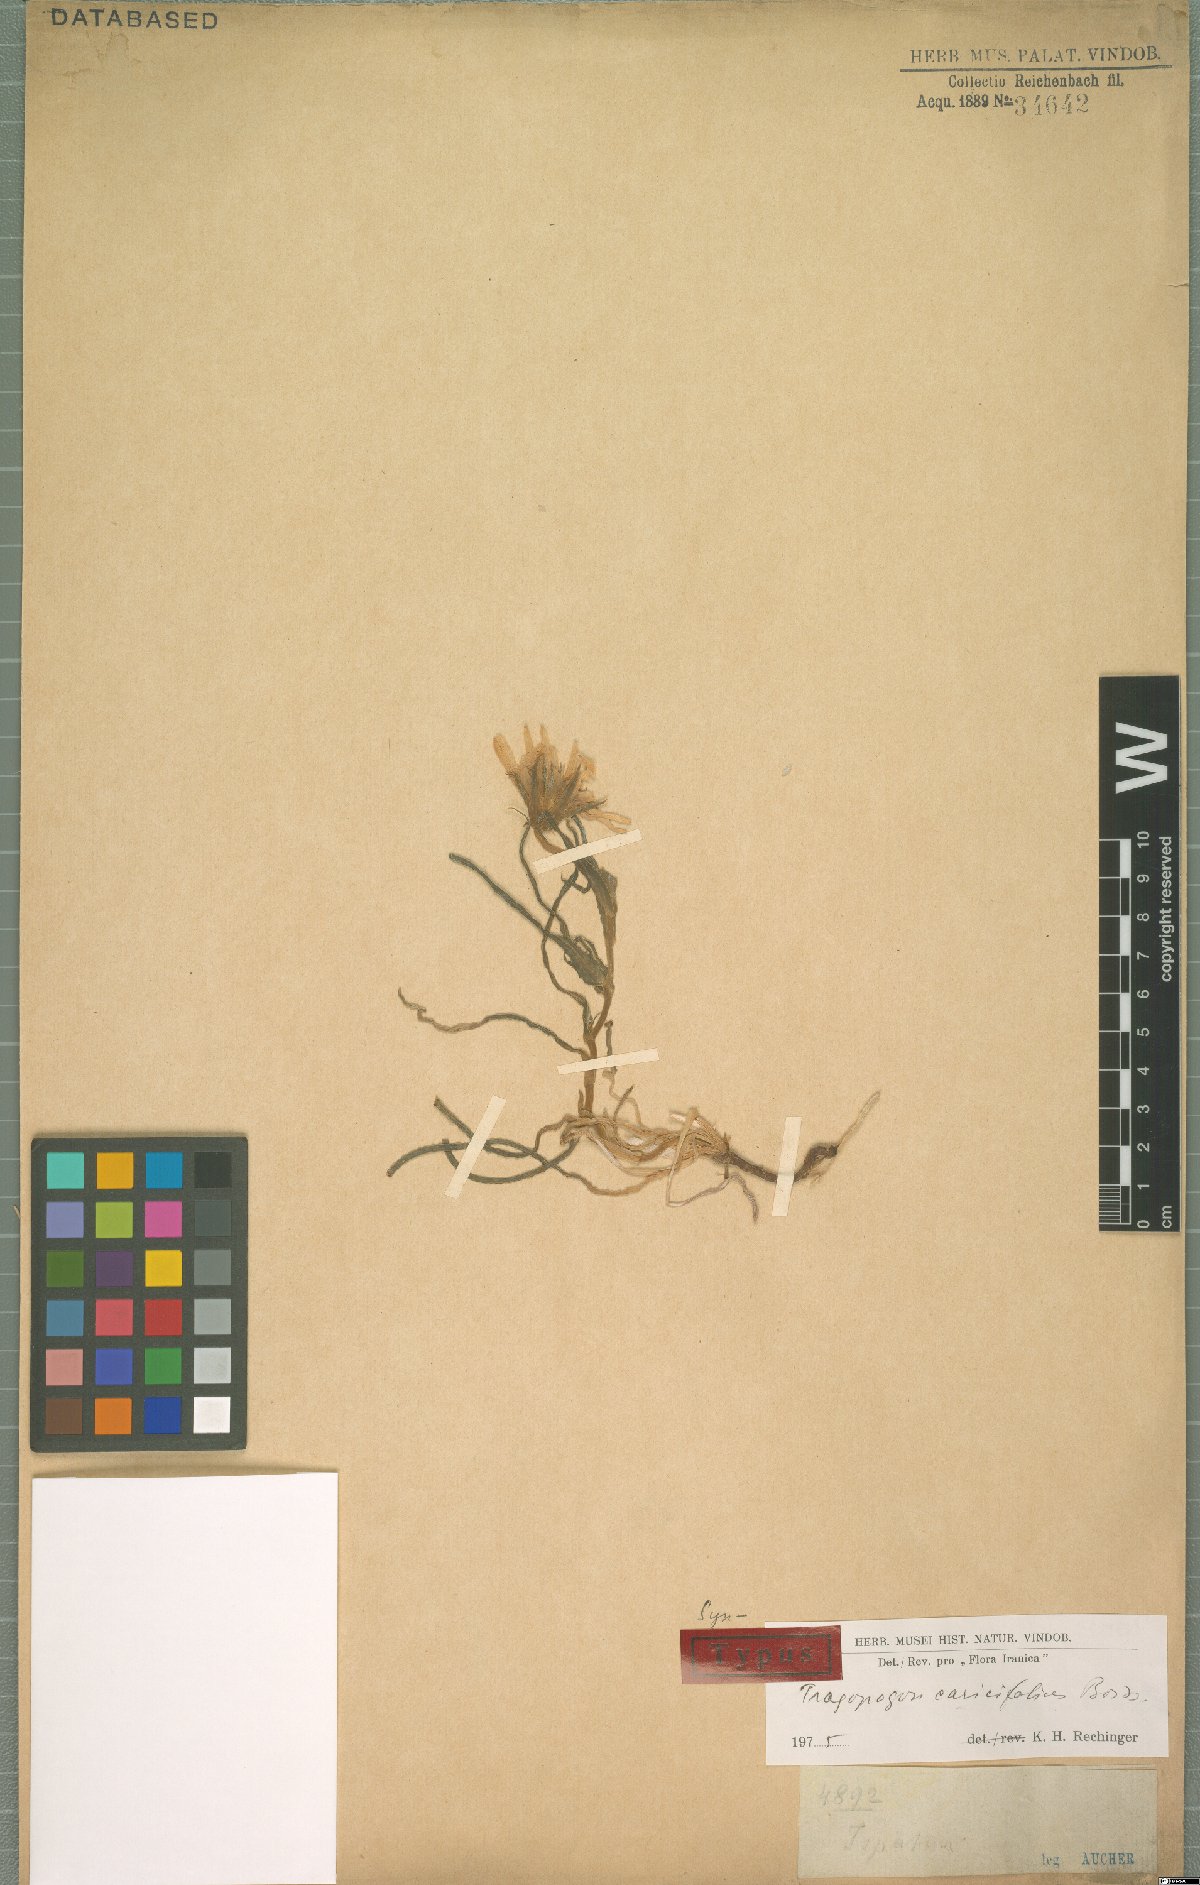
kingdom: Plantae
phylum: Tracheophyta
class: Magnoliopsida
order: Asterales
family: Asteraceae
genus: Tragopogon
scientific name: Tragopogon caricifolius
